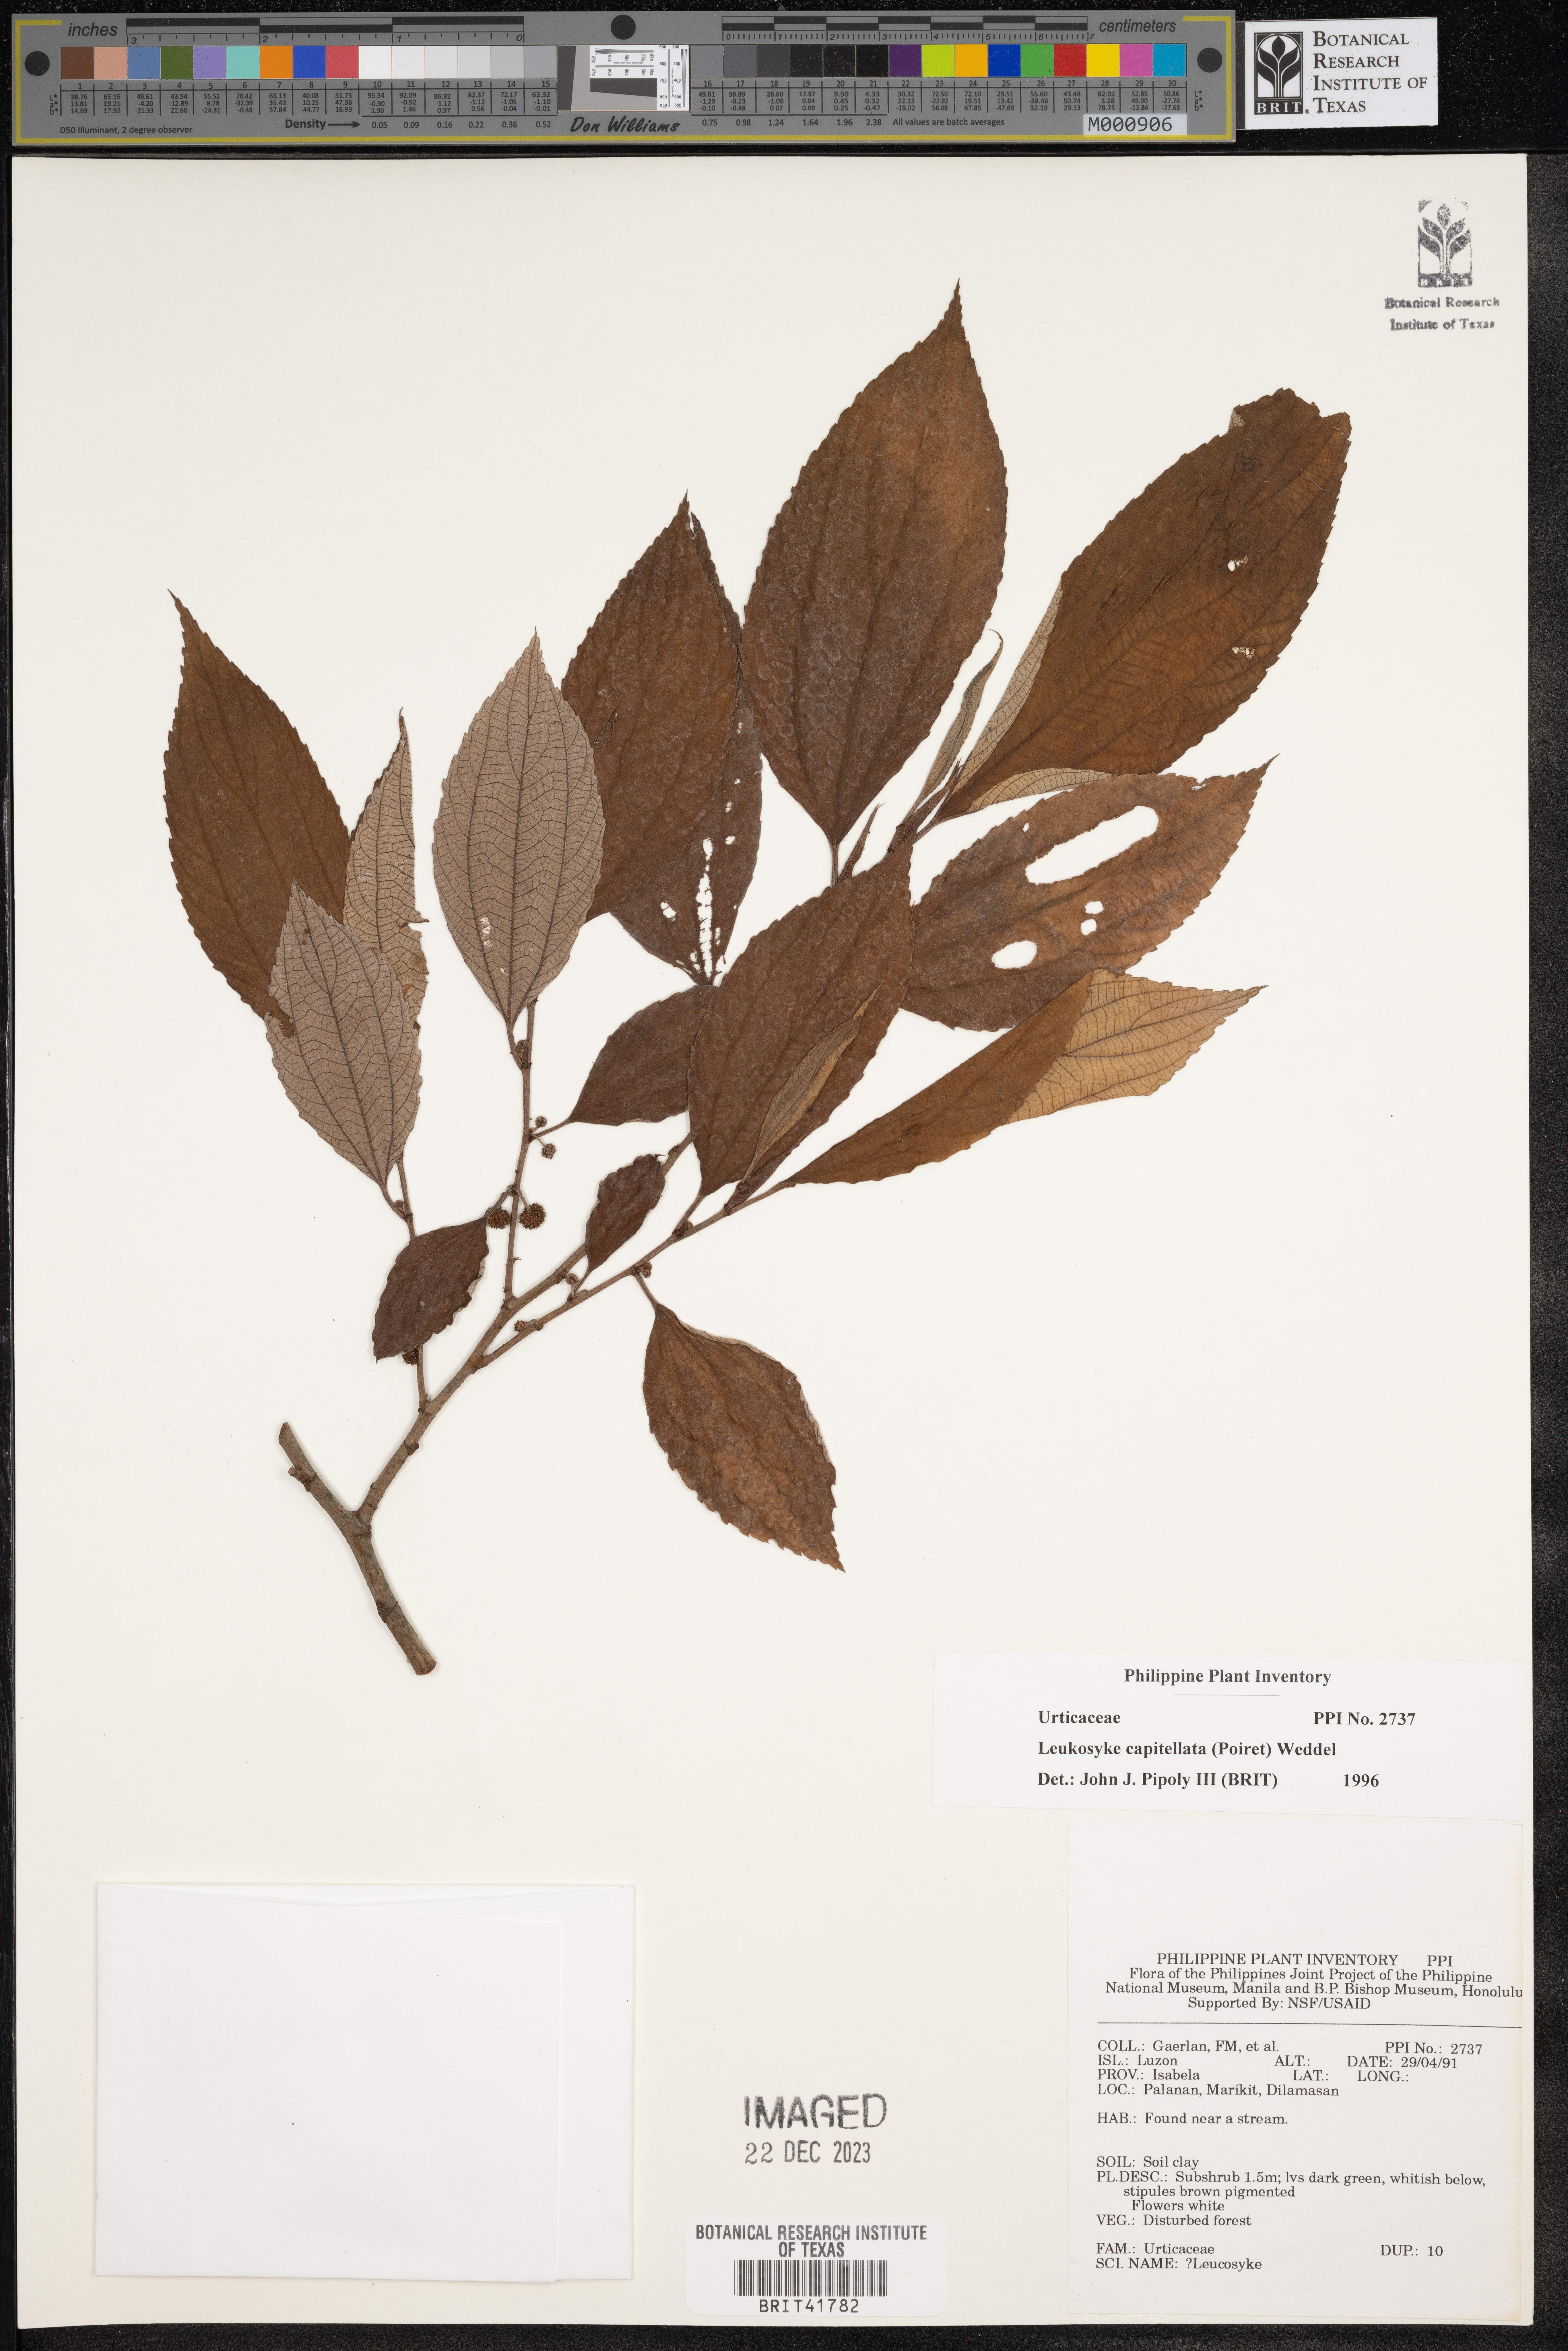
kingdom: Plantae
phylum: Tracheophyta
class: Magnoliopsida
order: Rosales
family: Urticaceae
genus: Leucosyke
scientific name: Leucosyke capitellata
